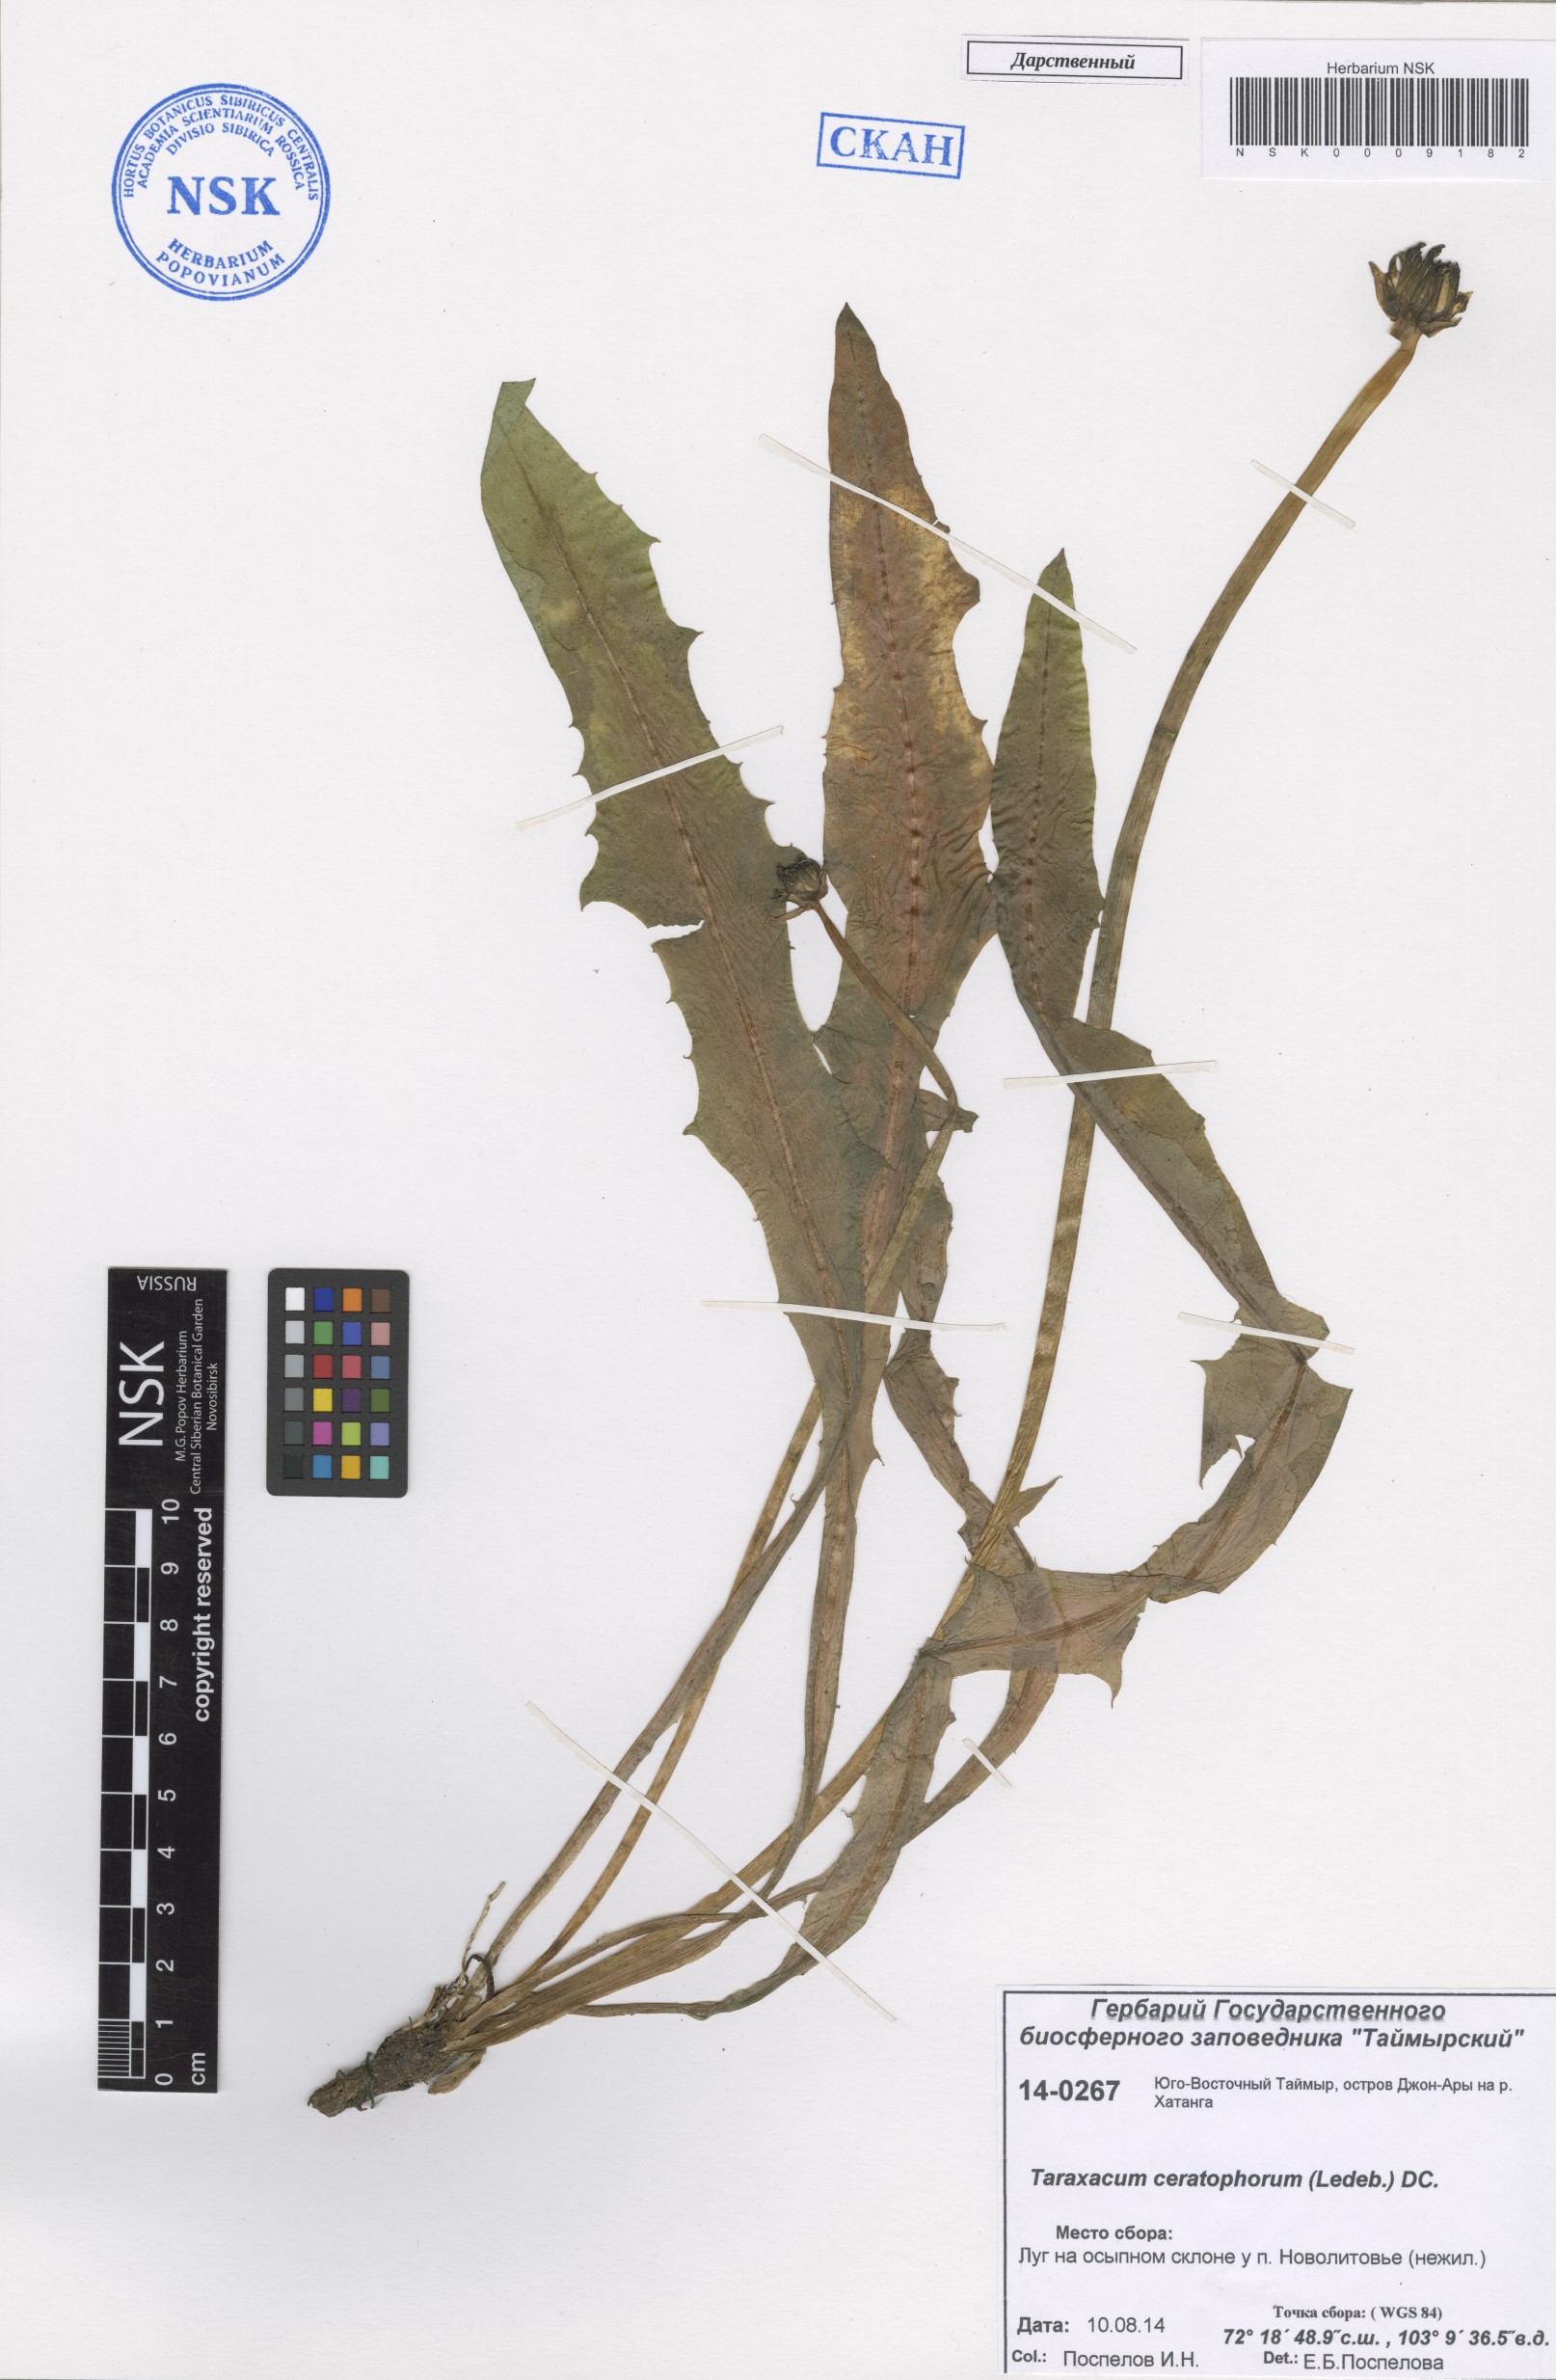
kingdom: Plantae
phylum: Tracheophyta
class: Magnoliopsida
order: Asterales
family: Asteraceae
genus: Taraxacum
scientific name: Taraxacum ceratophorum
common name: Horn-bearing dandelion
